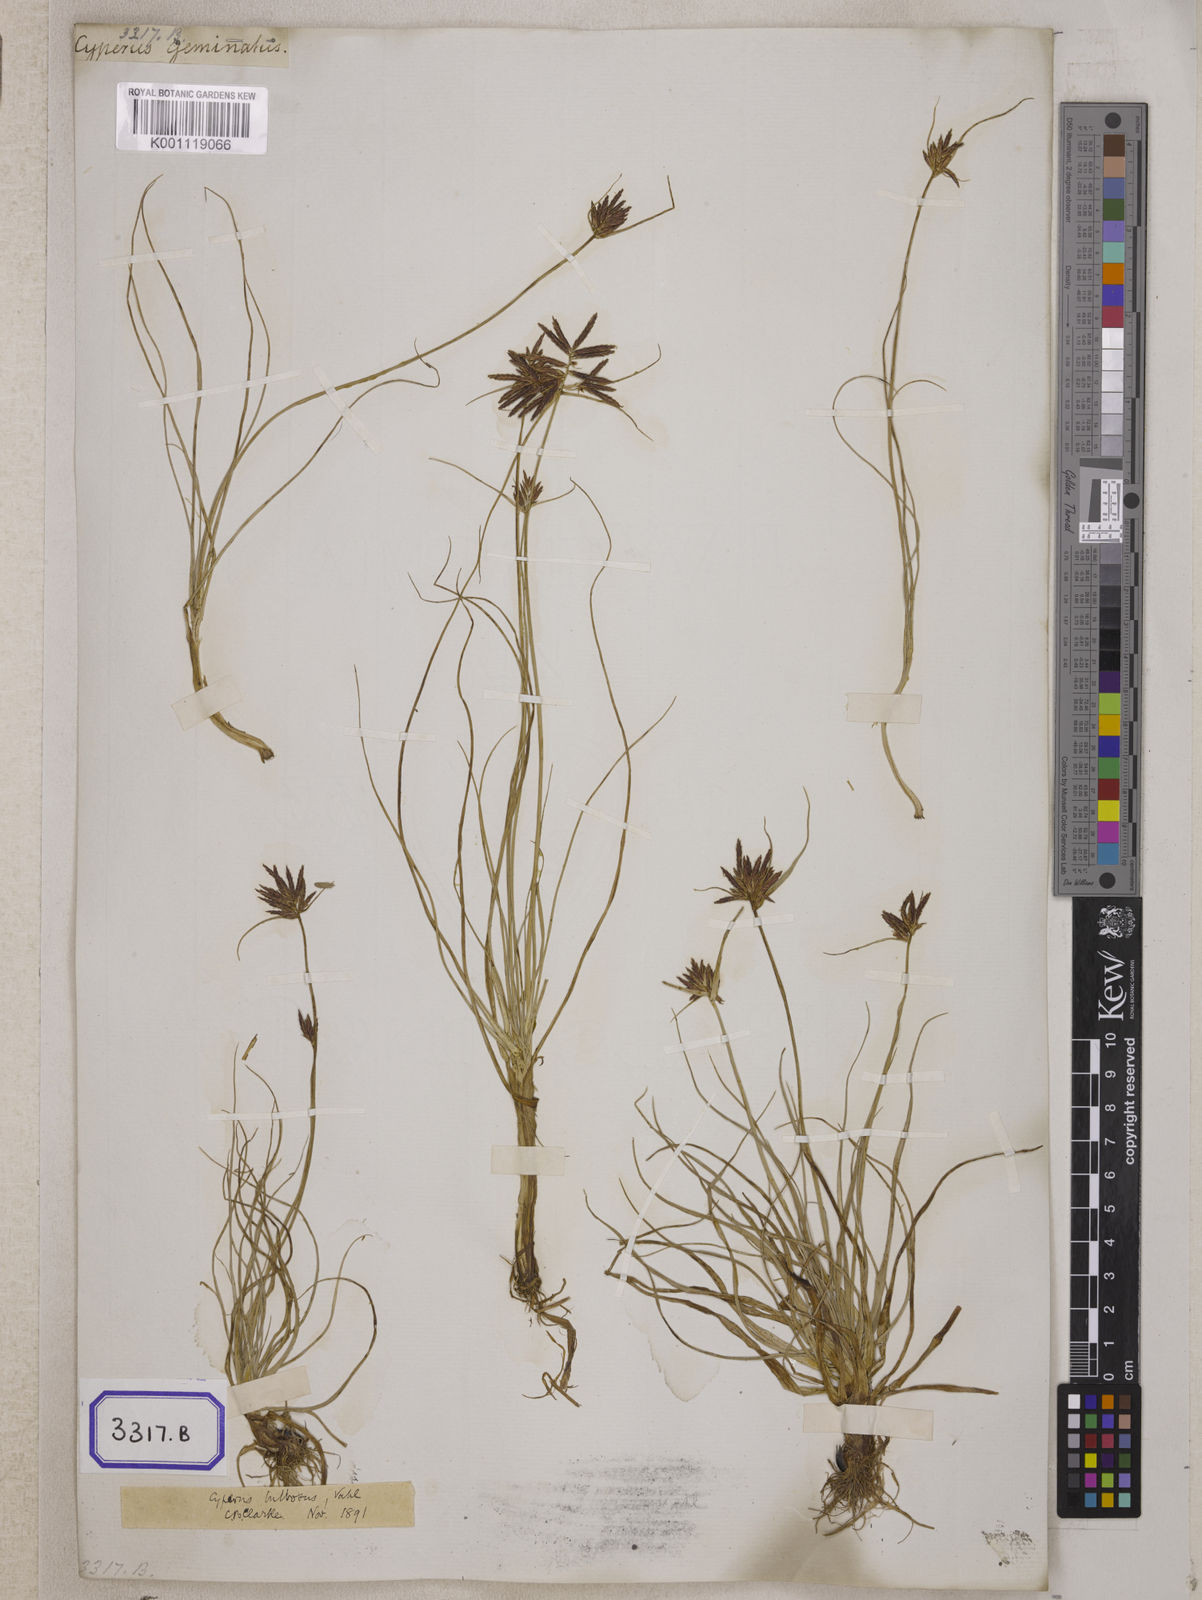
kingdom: Plantae
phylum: Tracheophyta
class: Liliopsida
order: Poales
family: Cyperaceae
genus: Cyperus
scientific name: Cyperus
